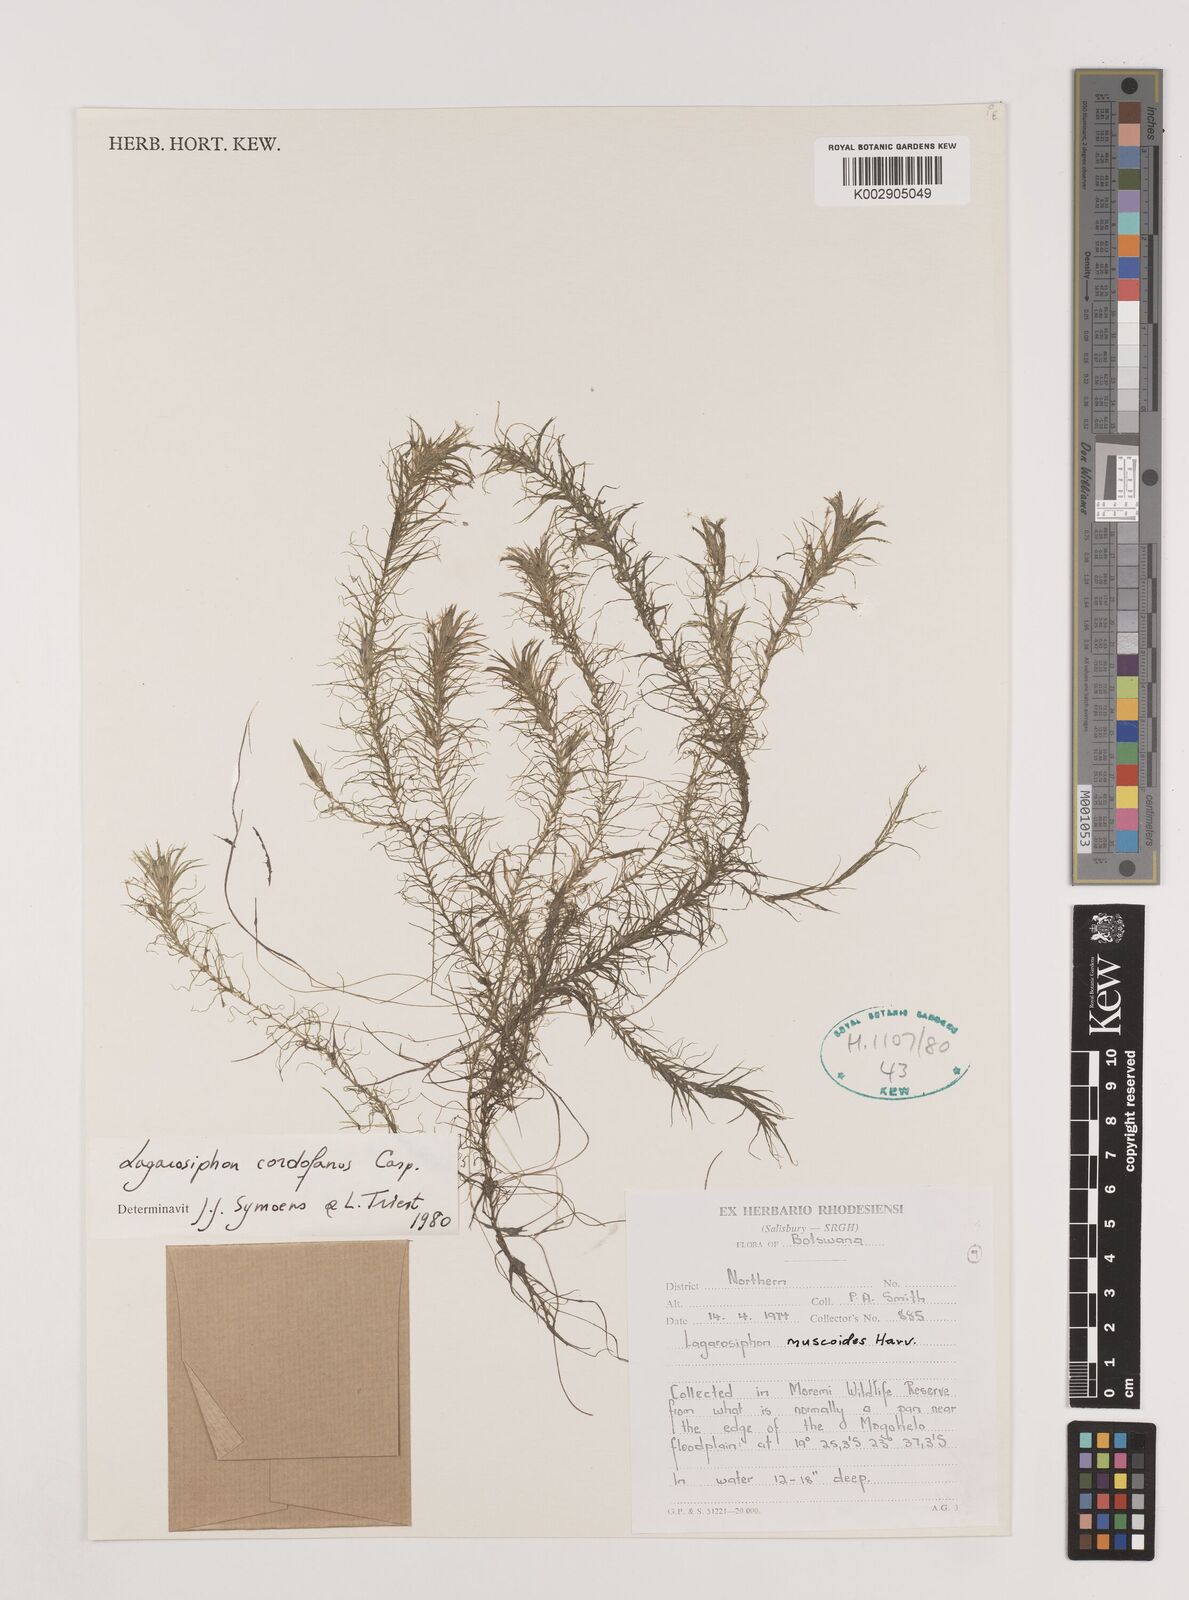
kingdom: Plantae
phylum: Tracheophyta
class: Liliopsida
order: Alismatales
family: Hydrocharitaceae
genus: Lagarosiphon
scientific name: Lagarosiphon cordofanus
